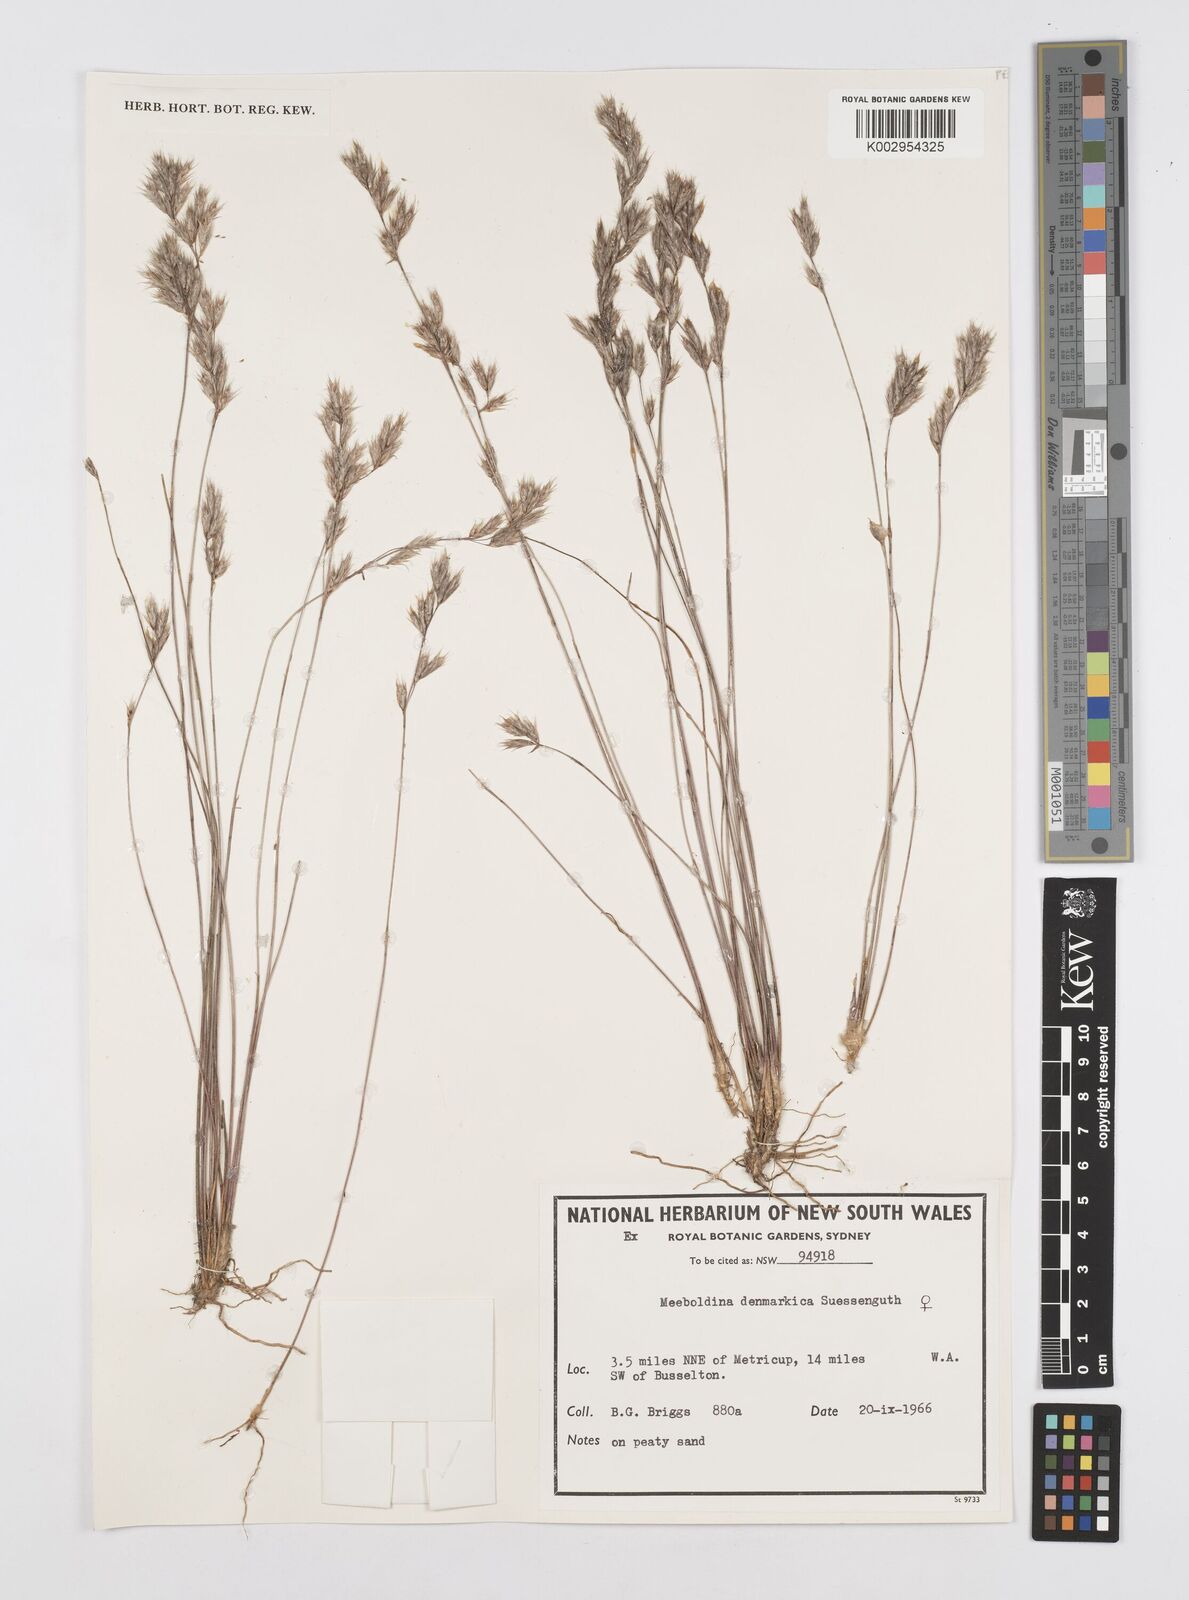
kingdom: Plantae
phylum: Tracheophyta
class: Liliopsida
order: Poales
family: Restionaceae
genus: Leptocarpus
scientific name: Leptocarpus denmarkicus
